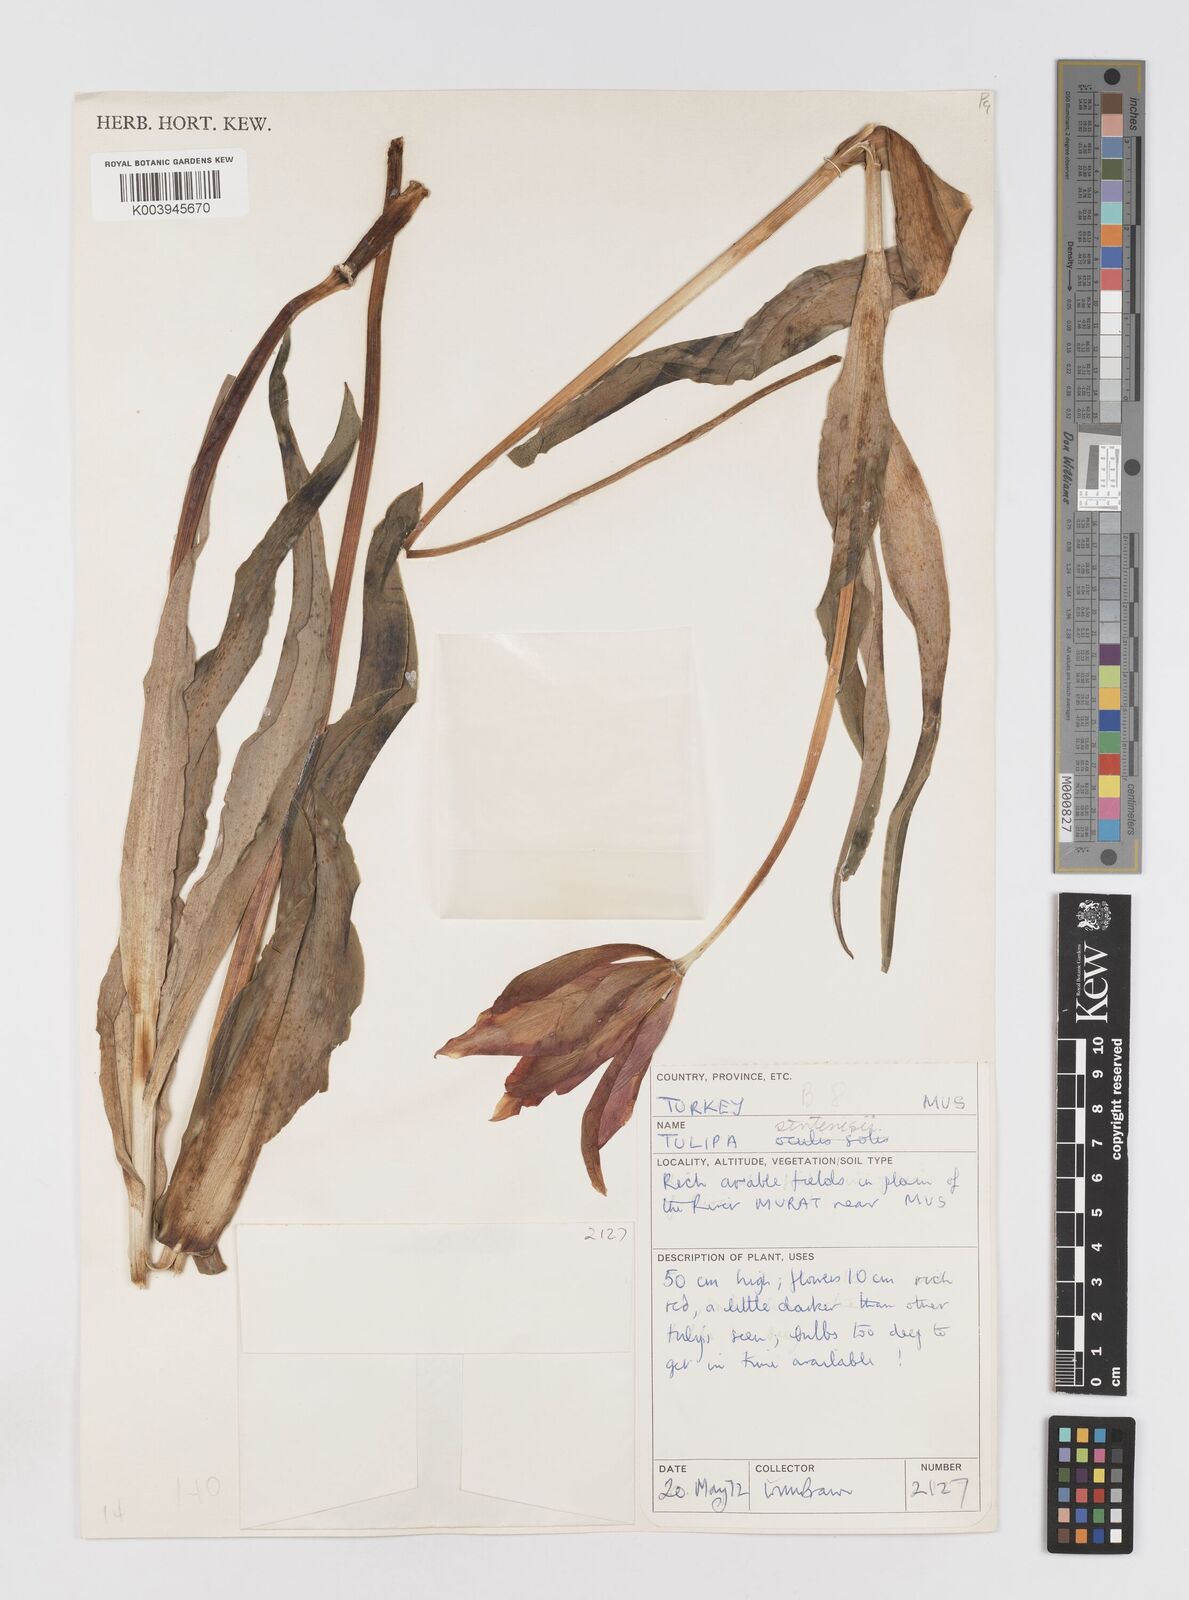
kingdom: Plantae
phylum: Tracheophyta
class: Liliopsida
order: Liliales
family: Liliaceae
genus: Tulipa
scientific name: Tulipa aleppensis
